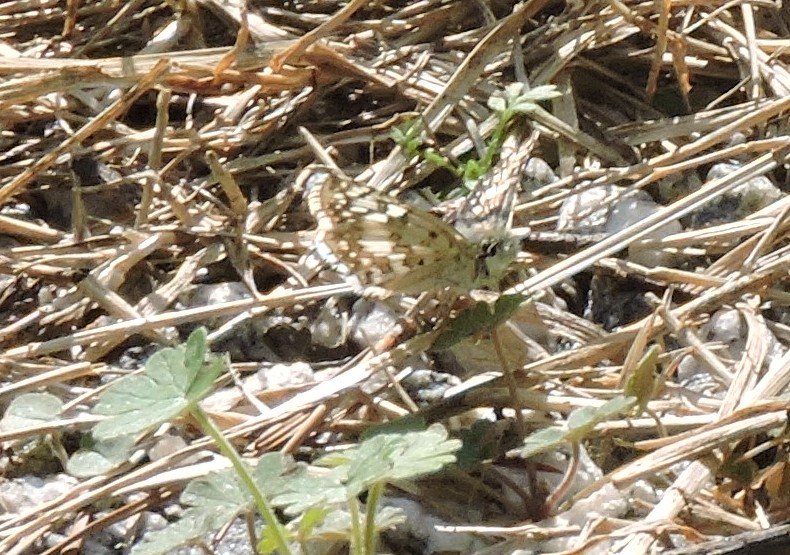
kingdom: Animalia
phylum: Arthropoda
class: Insecta
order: Lepidoptera
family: Hesperiidae
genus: Pyrgus
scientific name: Pyrgus
